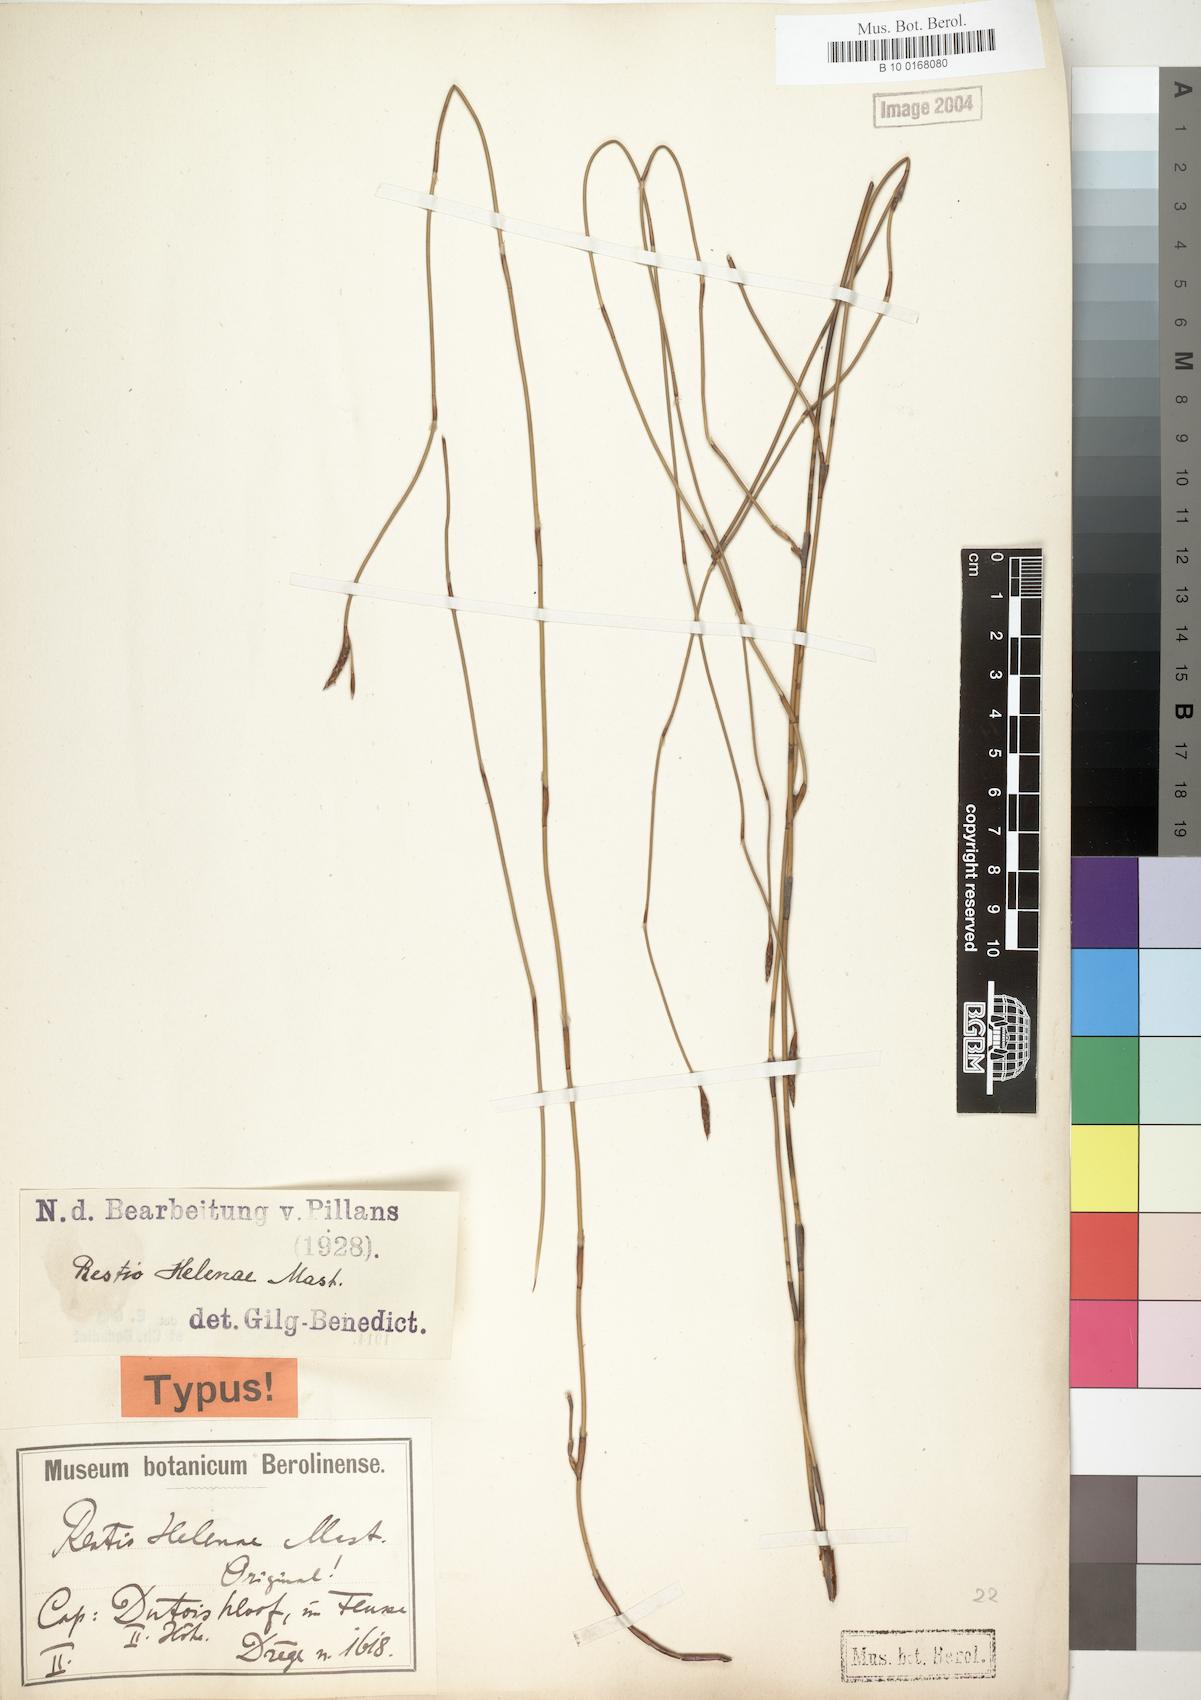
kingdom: Plantae
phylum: Tracheophyta
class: Liliopsida
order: Poales
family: Restionaceae
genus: Restio
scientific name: Restio helenae
